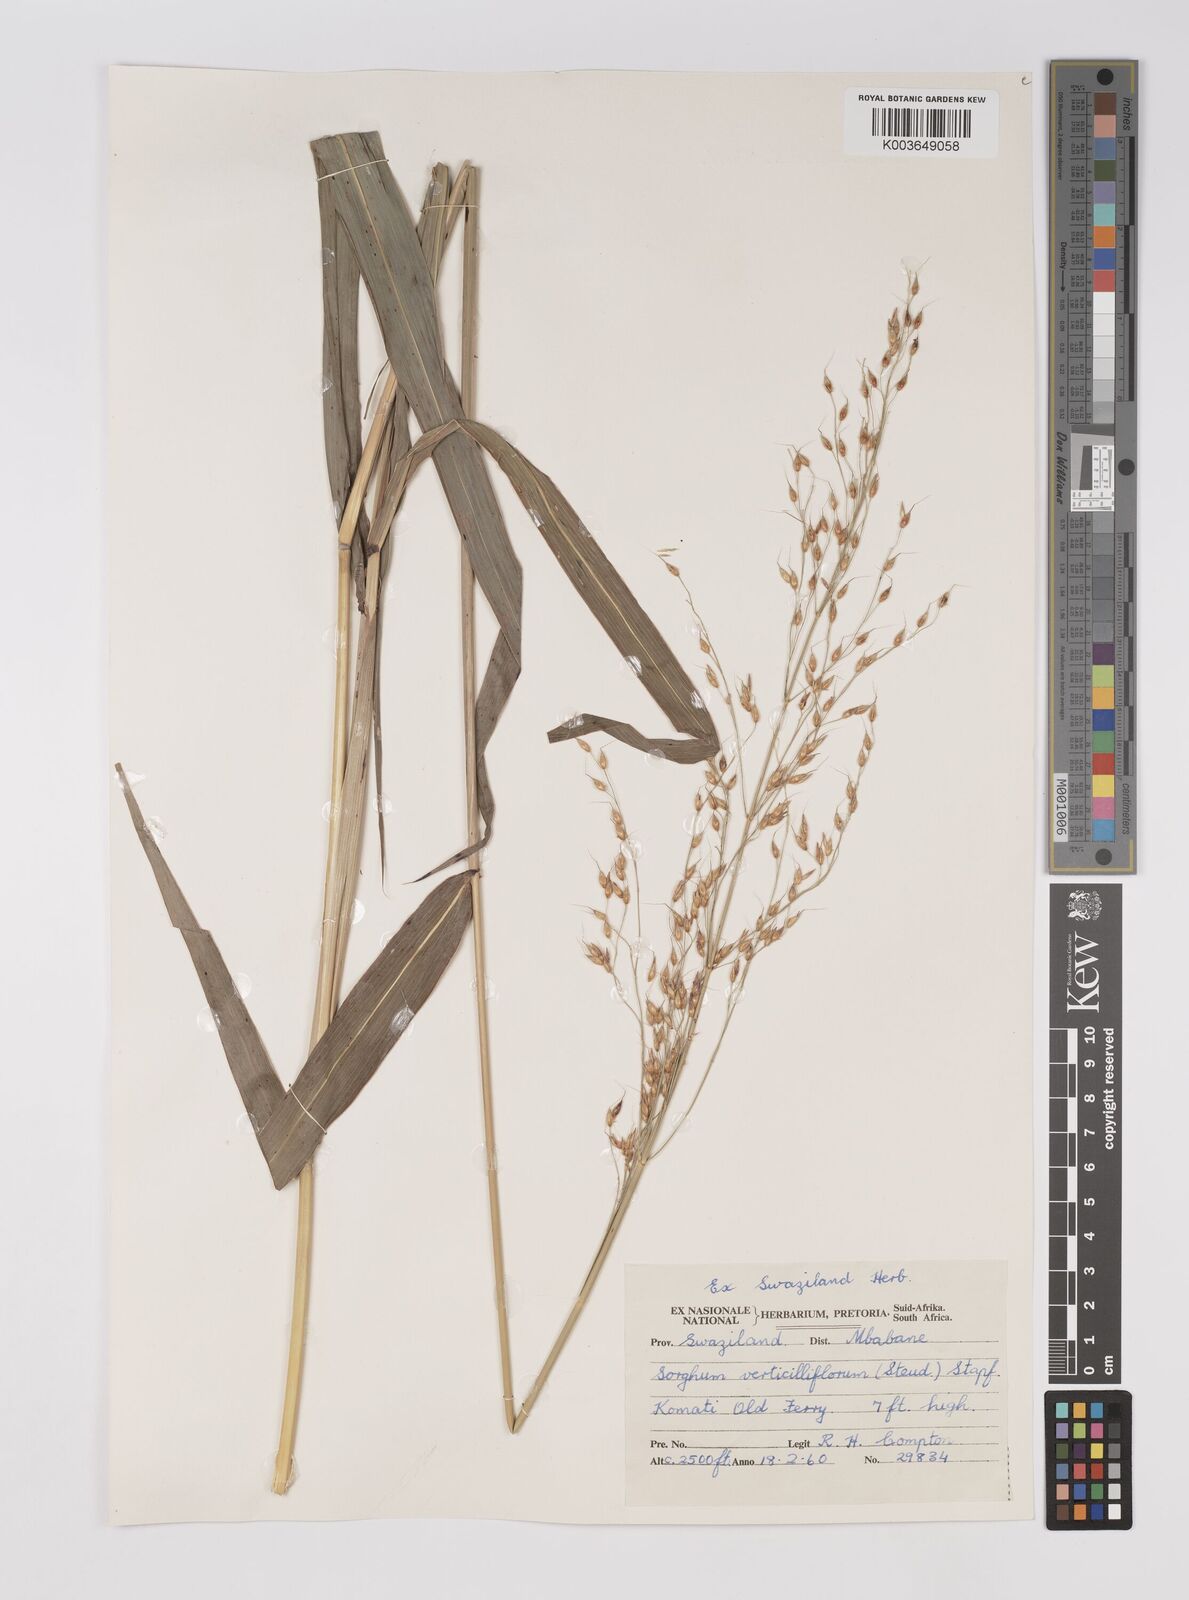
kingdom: Plantae
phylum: Tracheophyta
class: Liliopsida
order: Poales
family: Poaceae
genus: Sorghum
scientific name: Sorghum arundinaceum
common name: Sorghum
